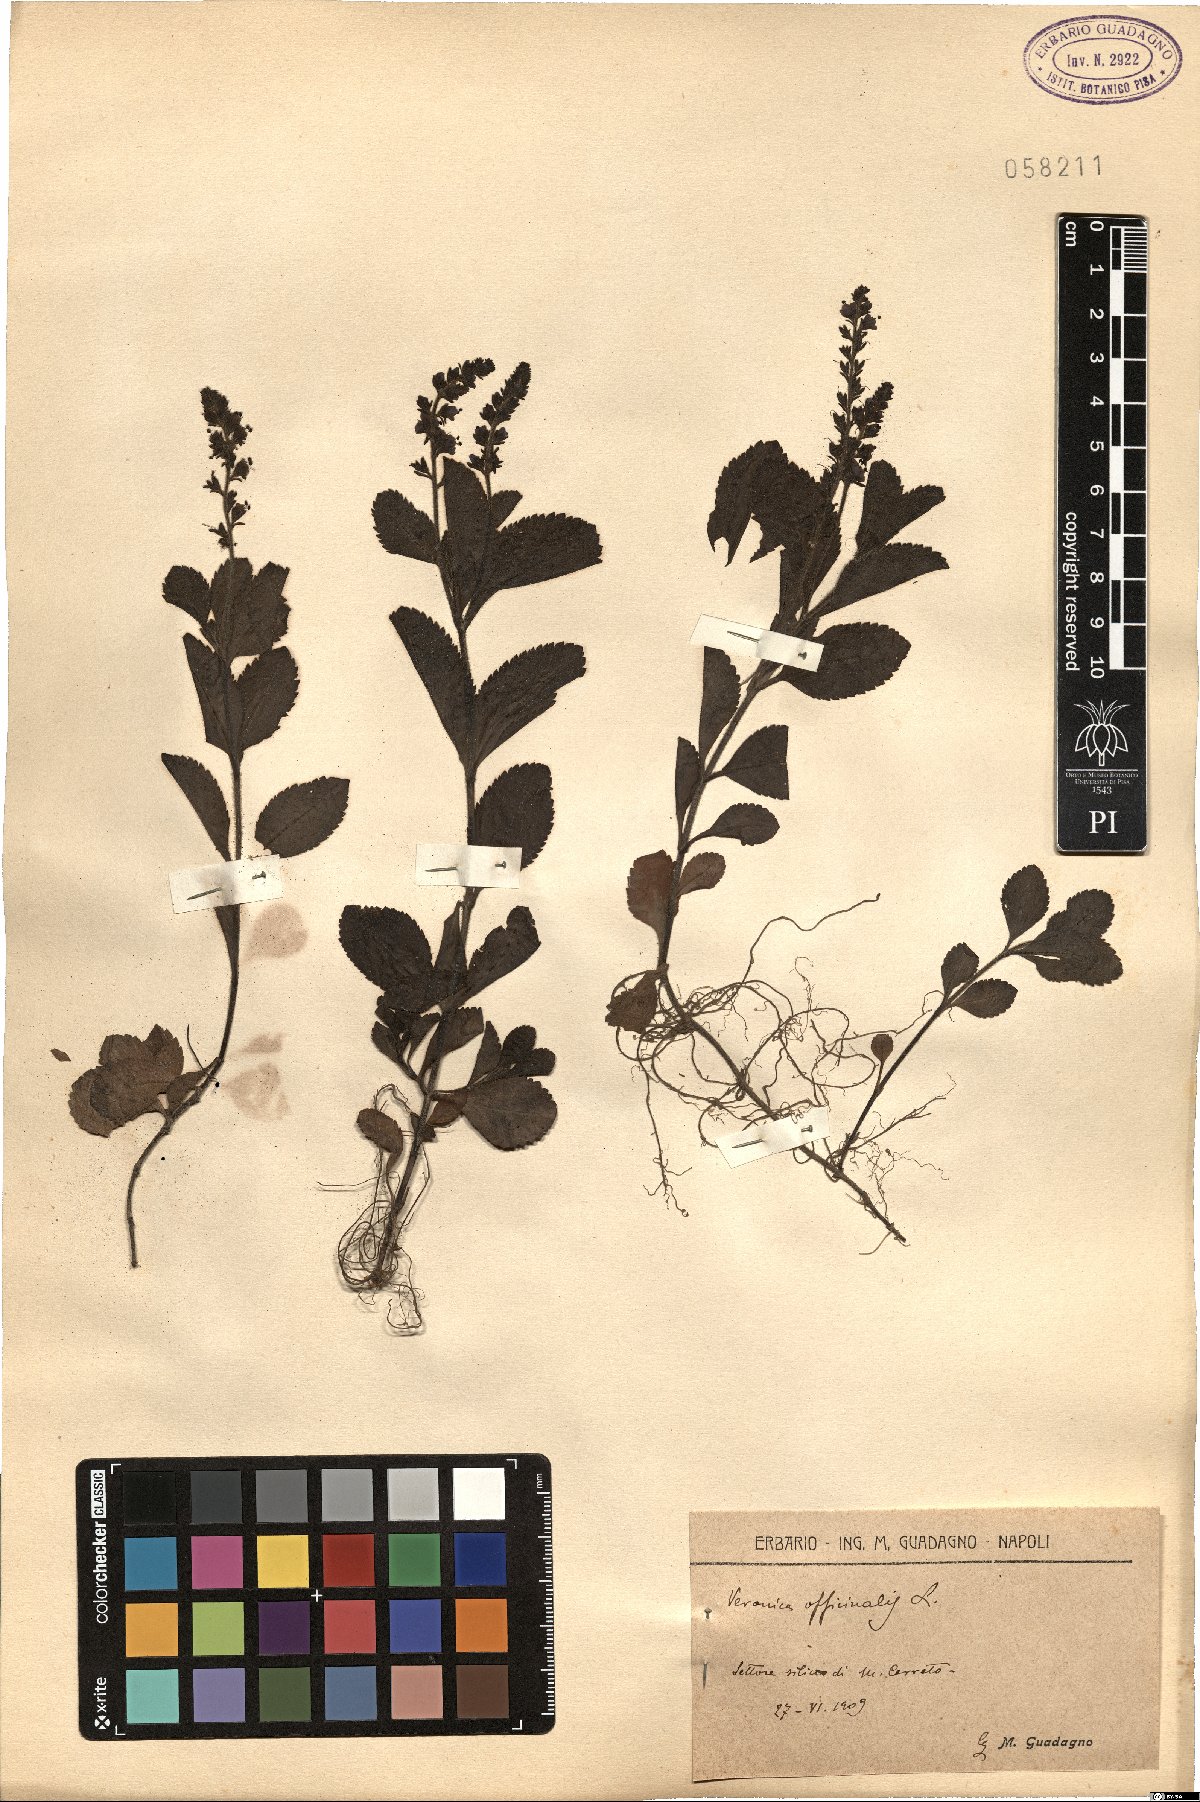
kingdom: Plantae
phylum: Tracheophyta
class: Magnoliopsida
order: Lamiales
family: Plantaginaceae
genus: Veronica
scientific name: Veronica officinalis
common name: Common speedwell
